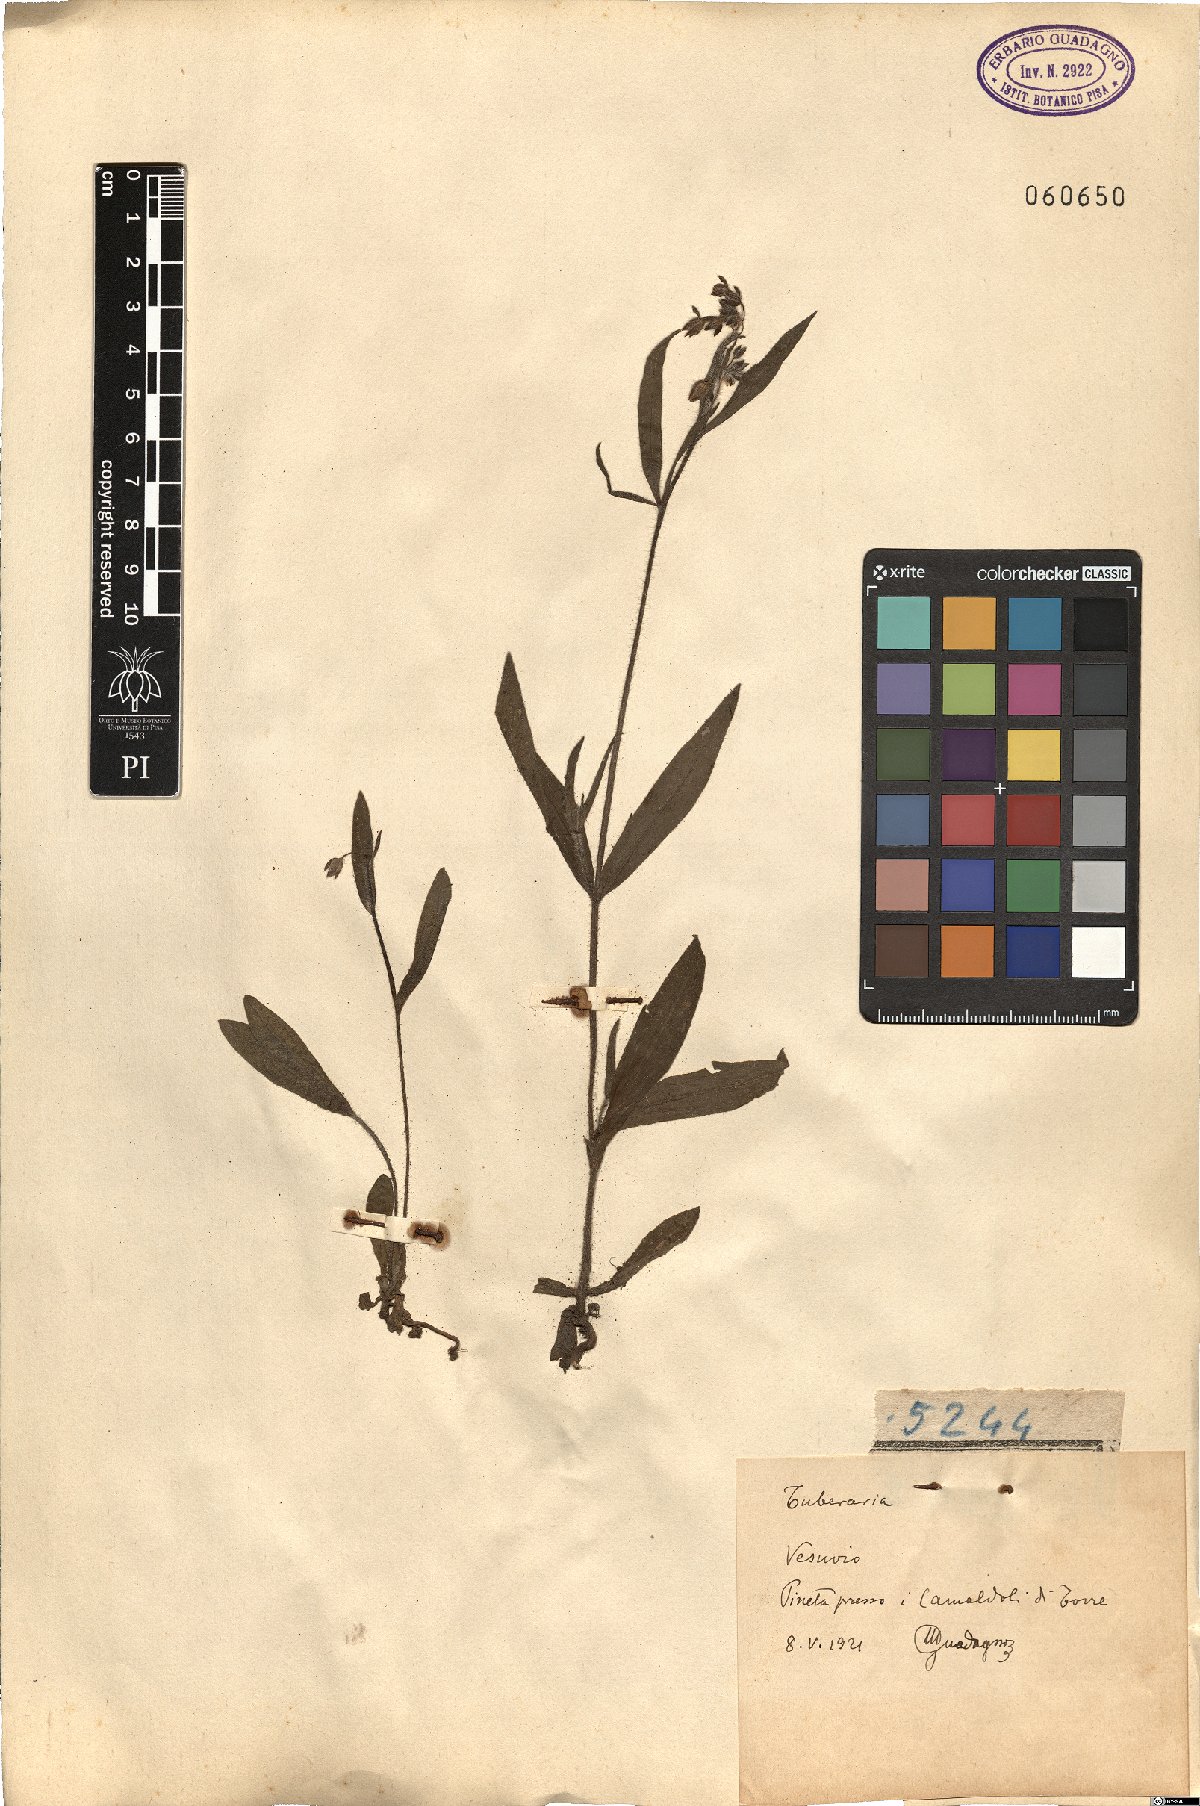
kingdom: Plantae
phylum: Tracheophyta
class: Magnoliopsida
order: Malvales
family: Cistaceae
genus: Tuberaria
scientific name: Tuberaria
